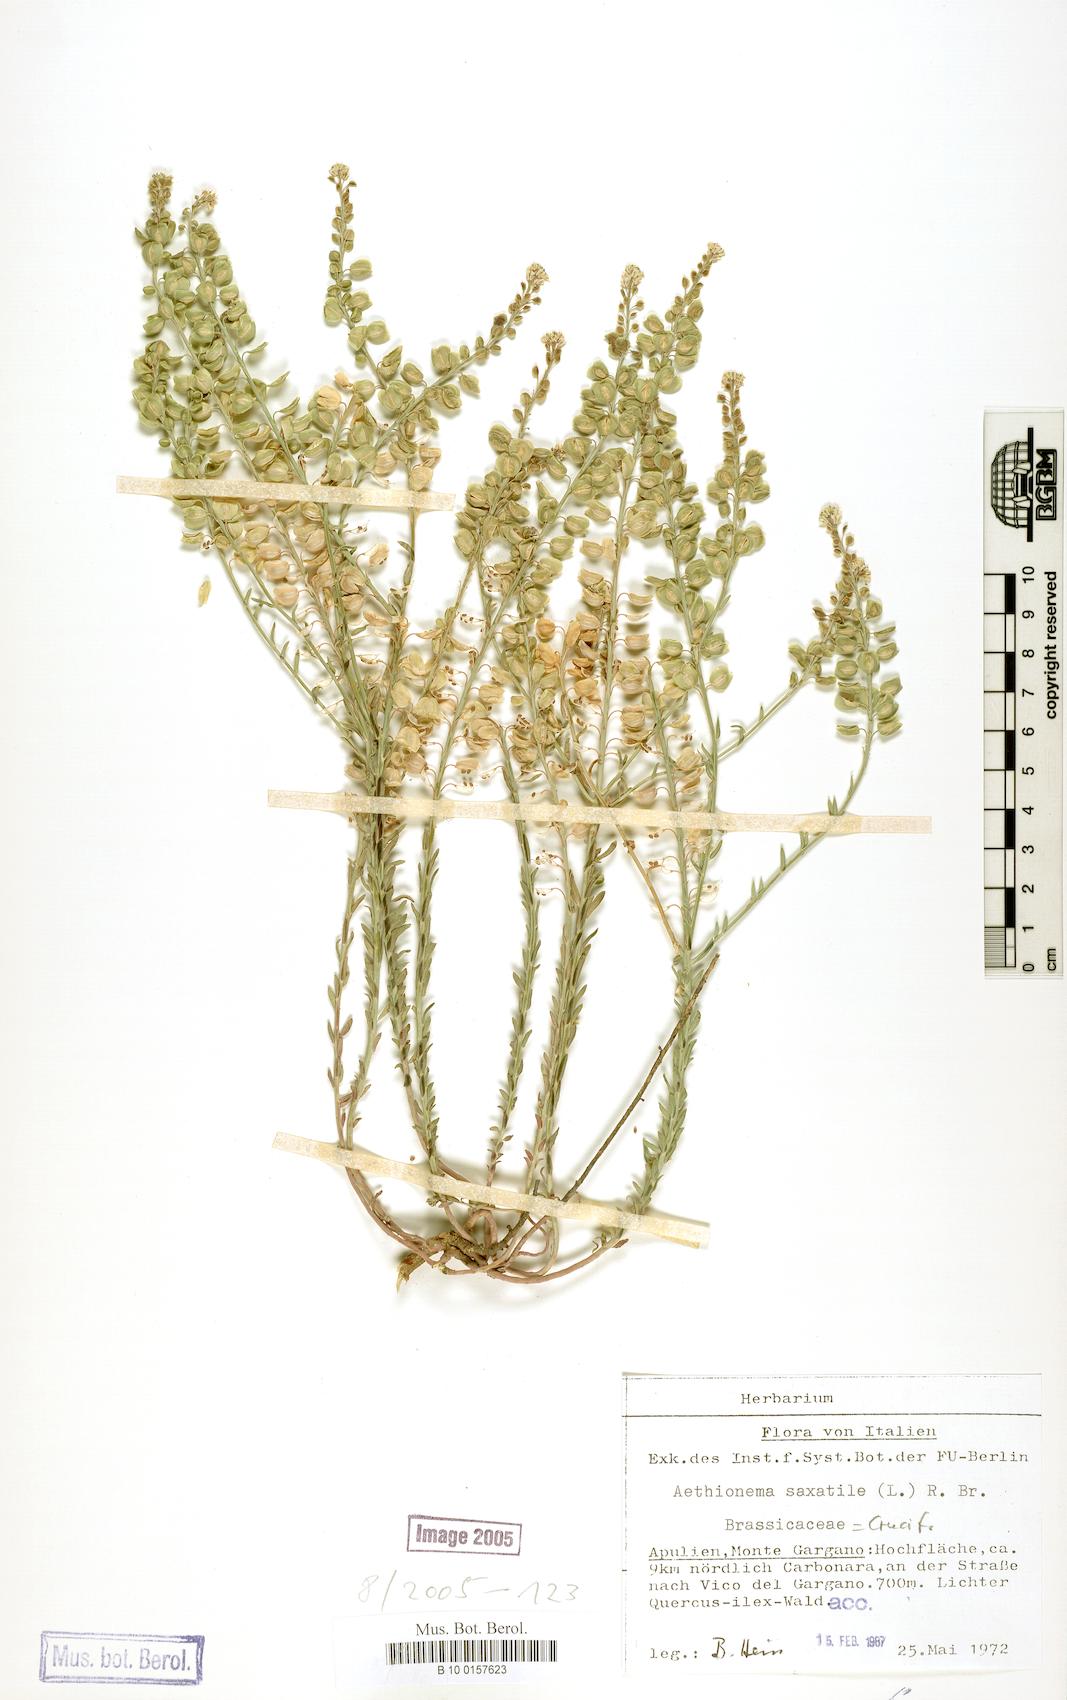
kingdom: Plantae
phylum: Tracheophyta
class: Magnoliopsida
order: Brassicales
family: Brassicaceae
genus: Aethionema
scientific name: Aethionema saxatile
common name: Burnt candytuft
